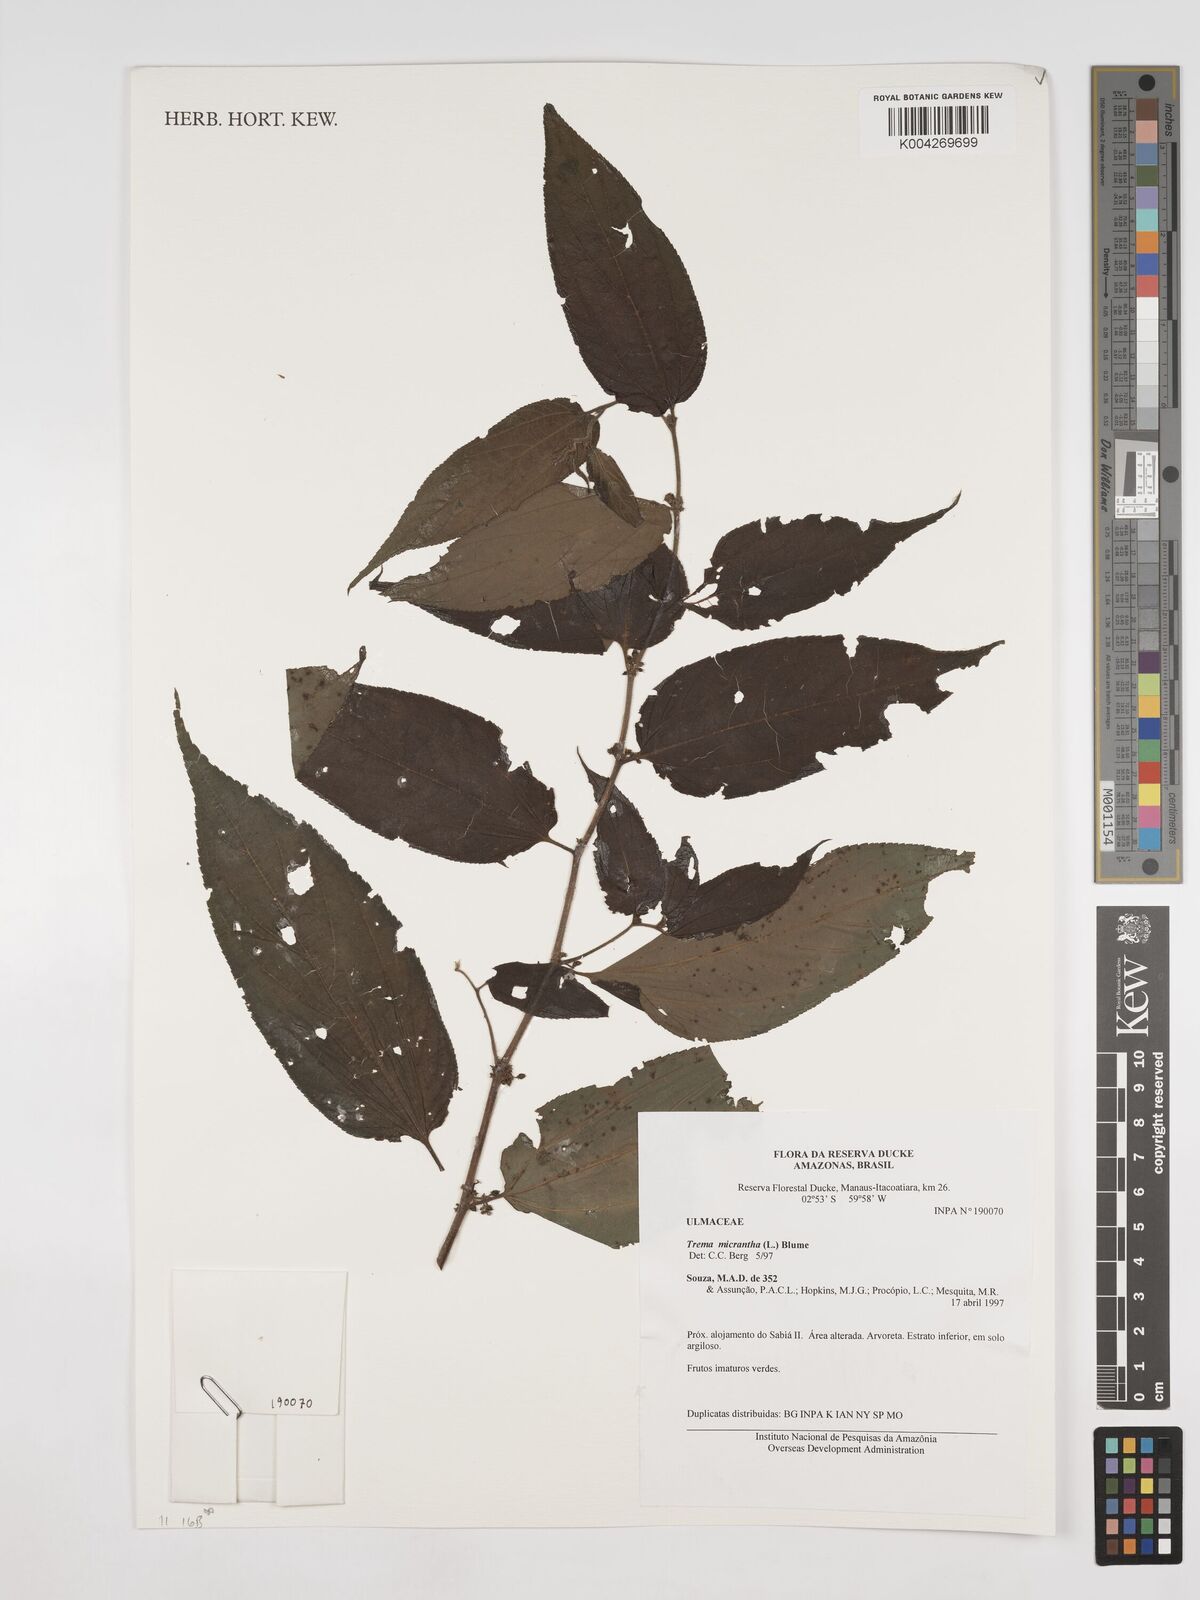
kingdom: Plantae
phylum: Tracheophyta
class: Magnoliopsida
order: Rosales
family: Cannabaceae
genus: Trema
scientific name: Trema micranthum
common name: Jamaican nettletree
